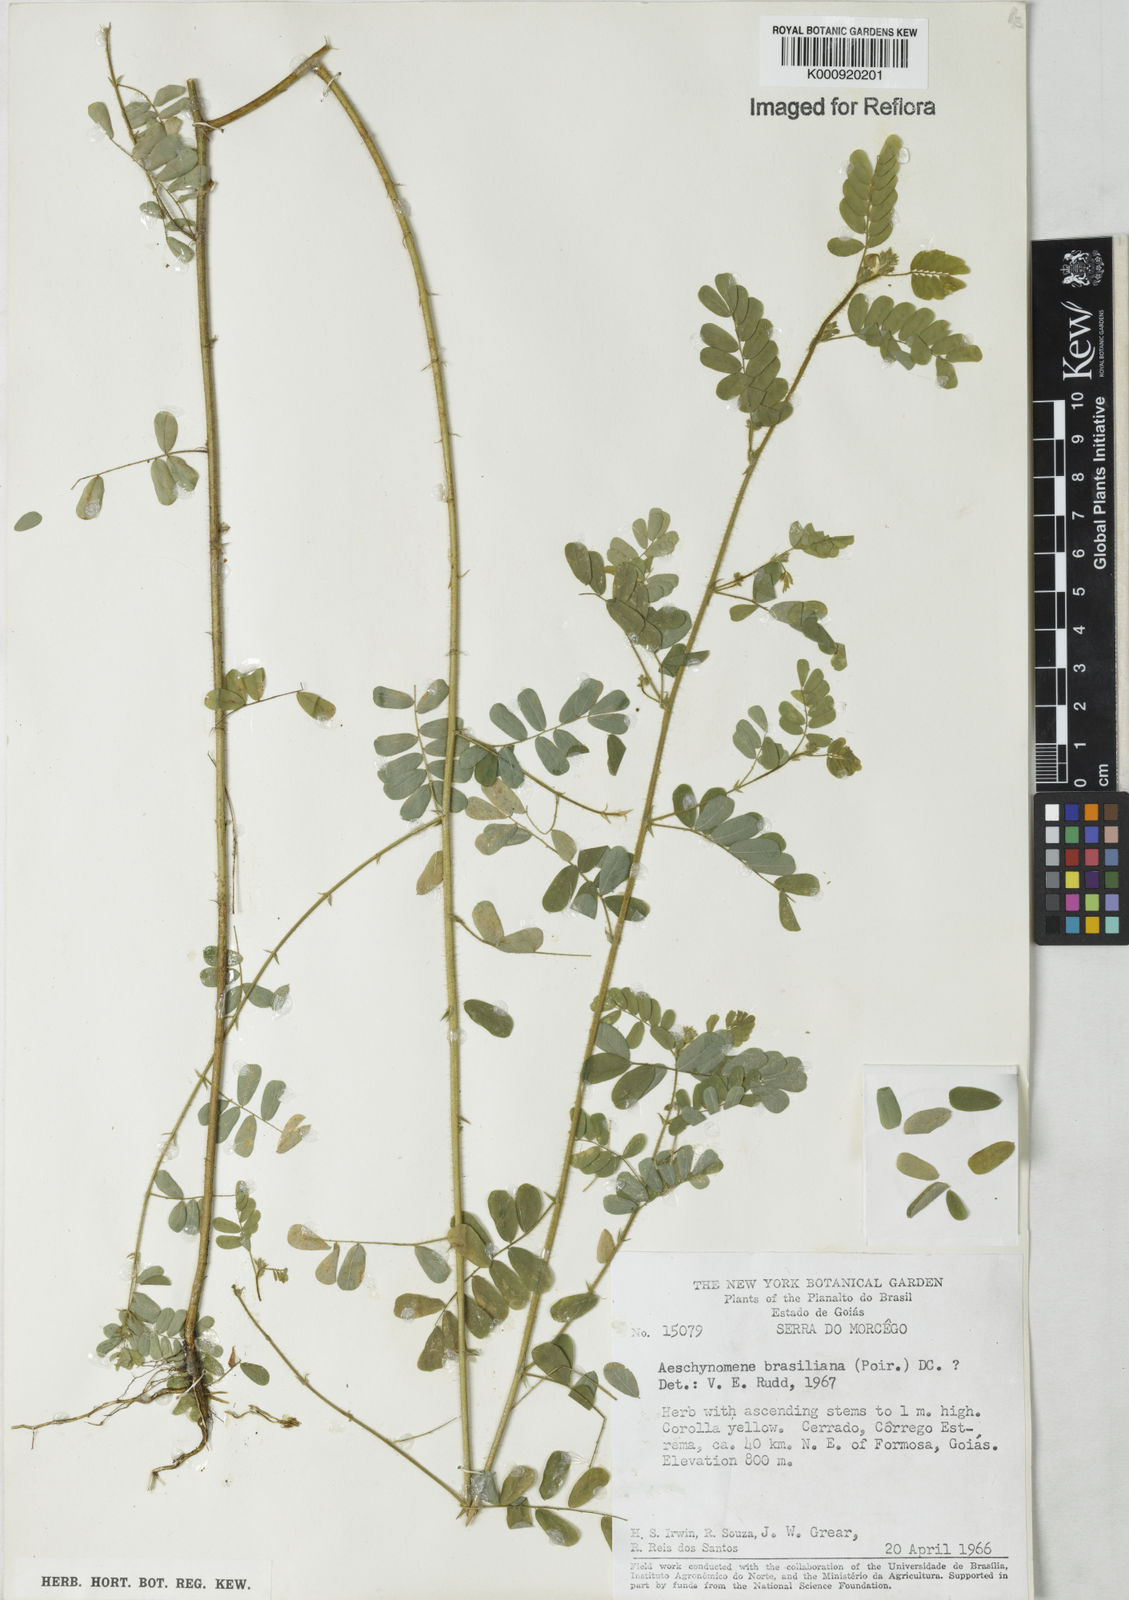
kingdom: Plantae
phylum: Tracheophyta
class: Magnoliopsida
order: Fabales
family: Fabaceae
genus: Ctenodon
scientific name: Ctenodon brasilianus
